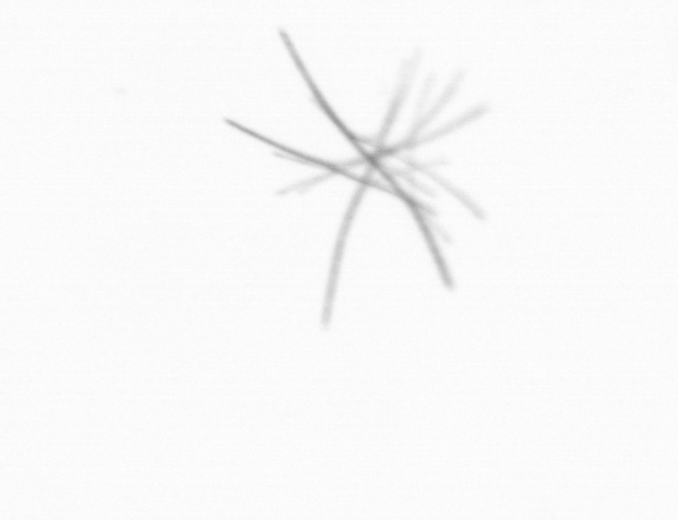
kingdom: Bacteria
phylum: Cyanobacteria
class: Cyanobacteriia
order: Cyanobacteriales
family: Microcoleaceae
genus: Trichodesmium
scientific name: Trichodesmium
